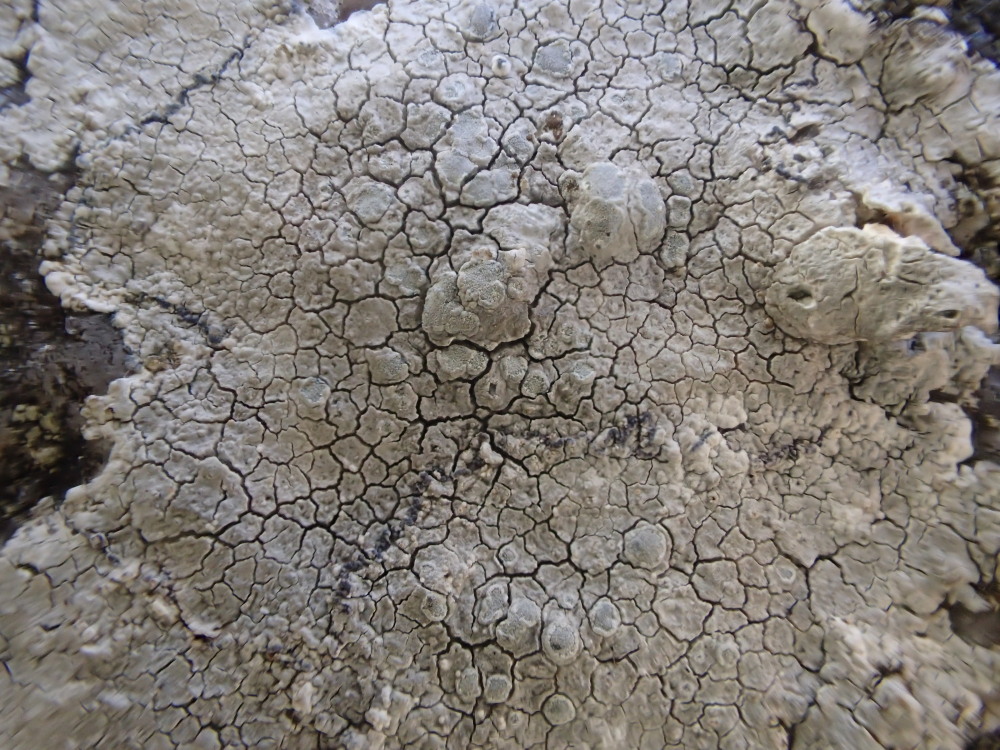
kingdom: Fungi
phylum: Ascomycota
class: Lecanoromycetes
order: Lecanorales
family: Lecanoraceae
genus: Glaucomaria
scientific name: Glaucomaria rupicola
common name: stengærde-kantskivelav
